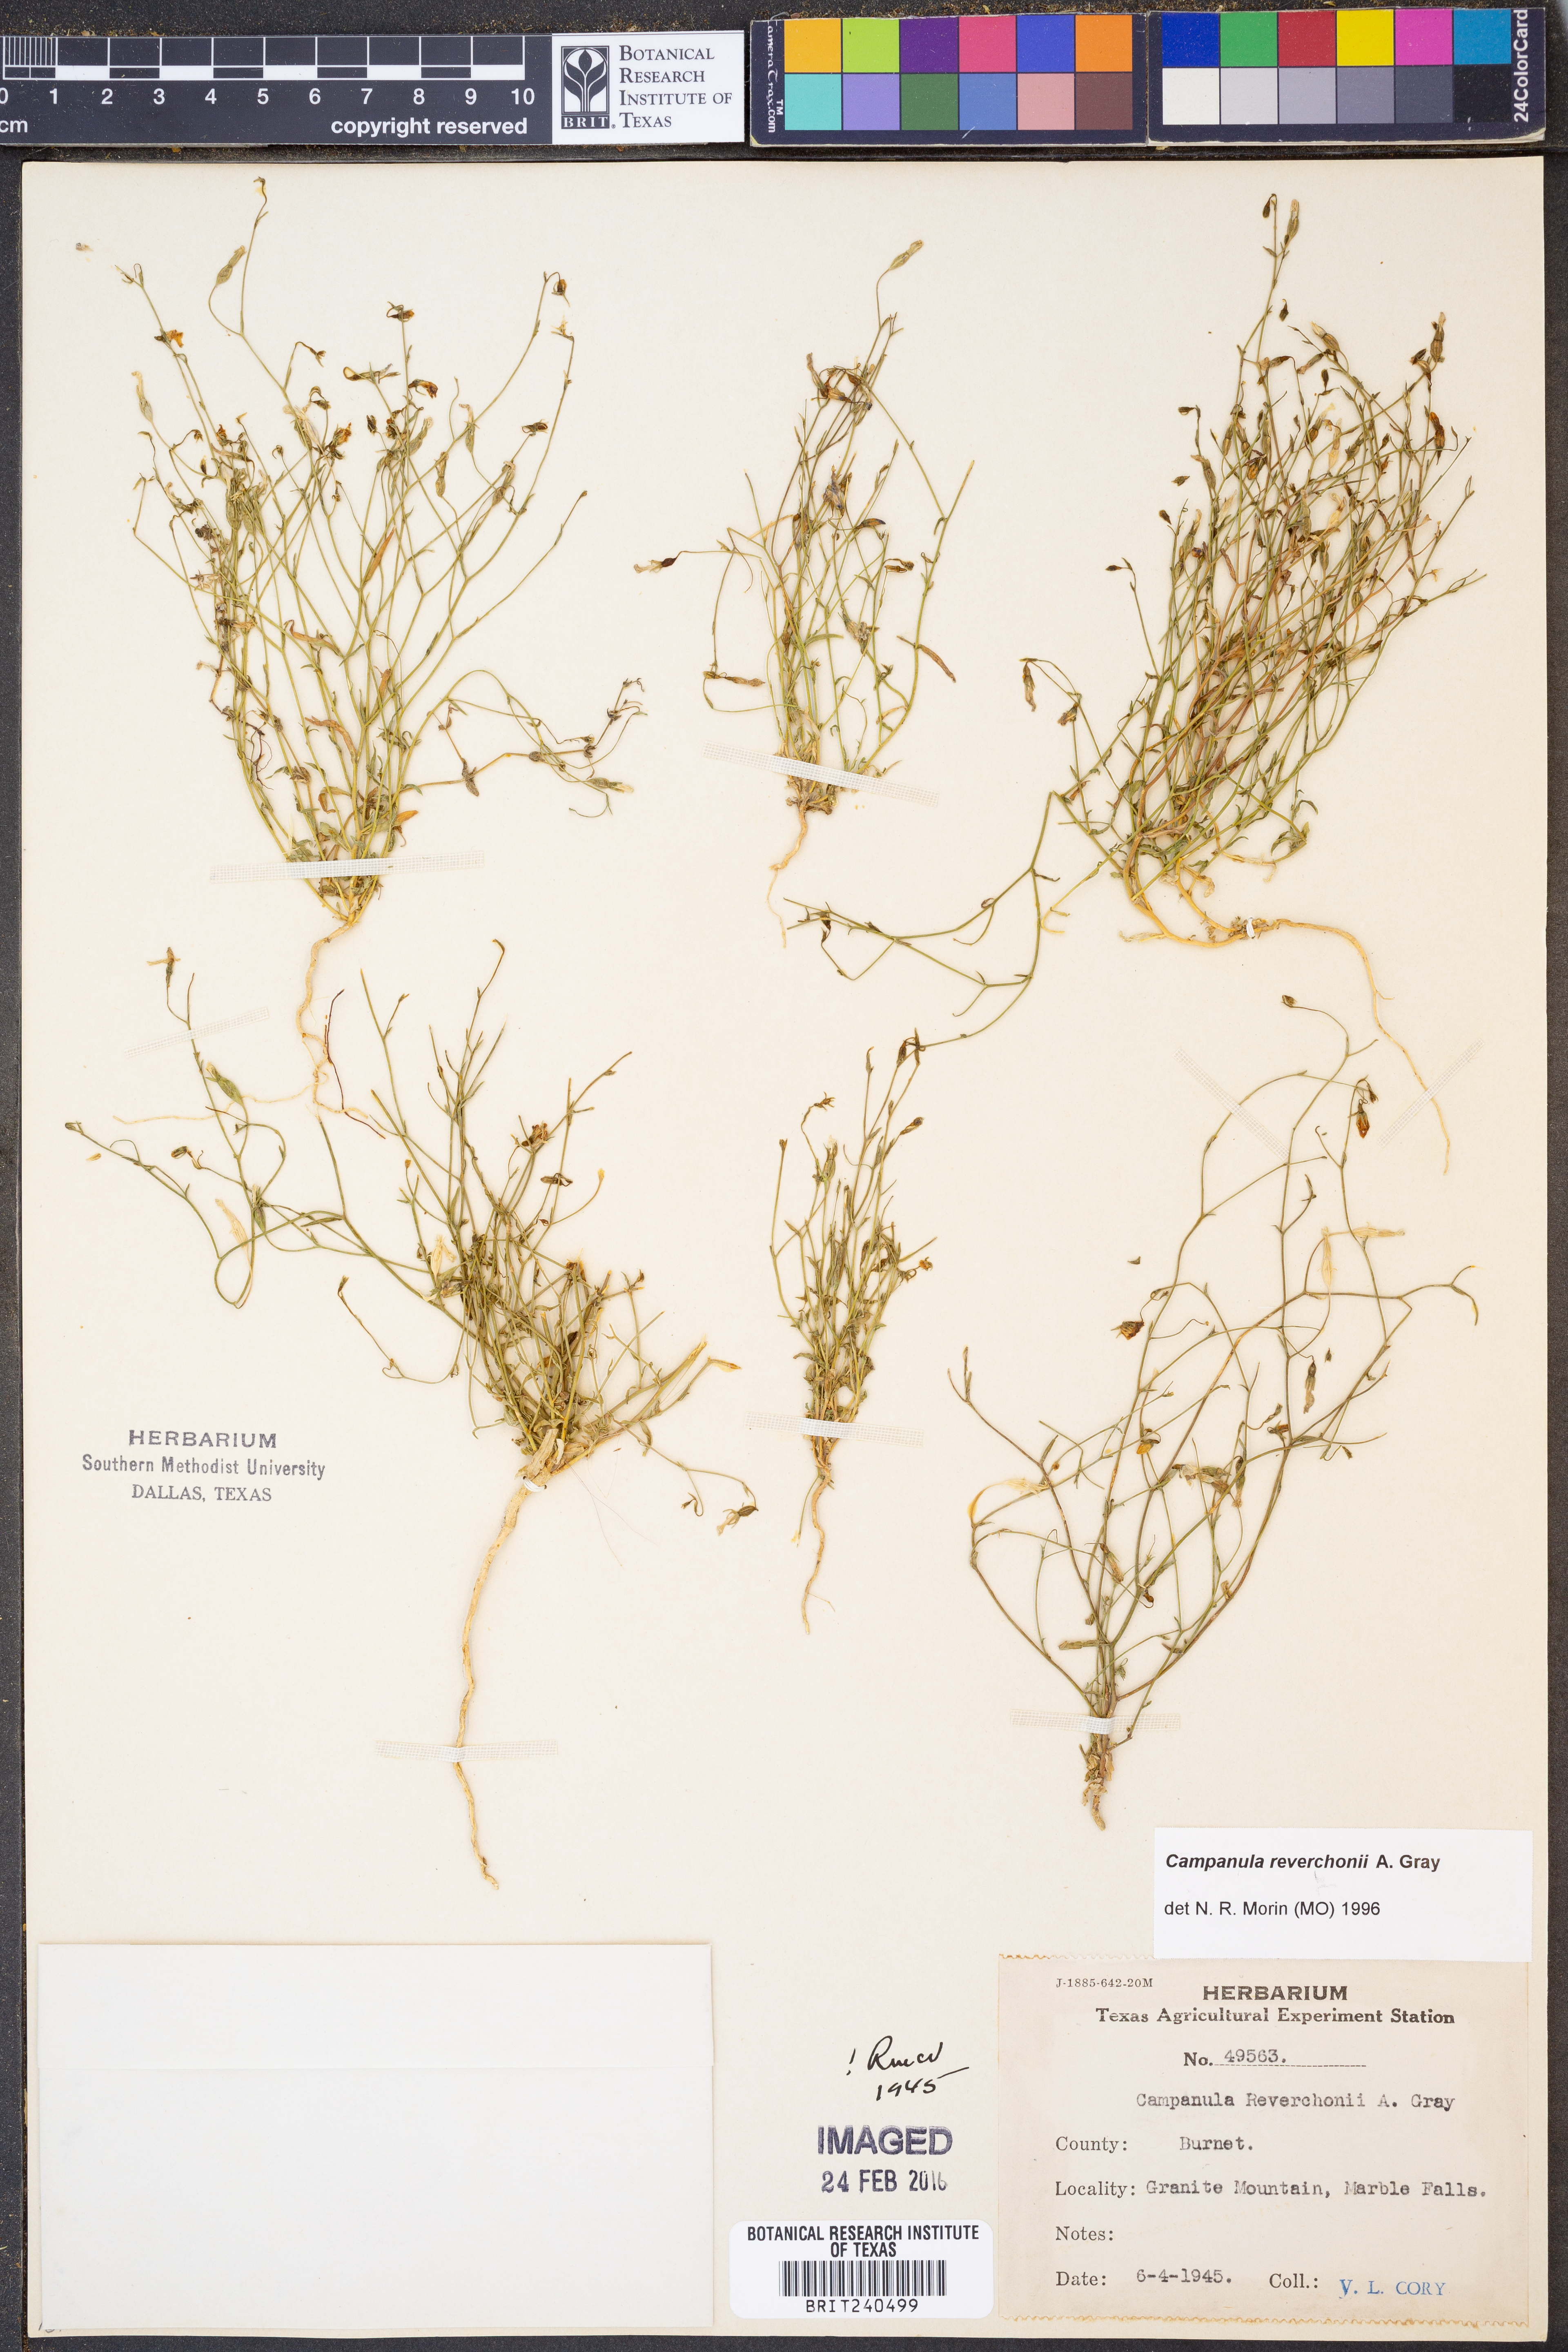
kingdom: Plantae
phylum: Tracheophyta
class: Magnoliopsida
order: Asterales
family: Campanulaceae
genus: Poolea
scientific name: Poolea reverchonii
